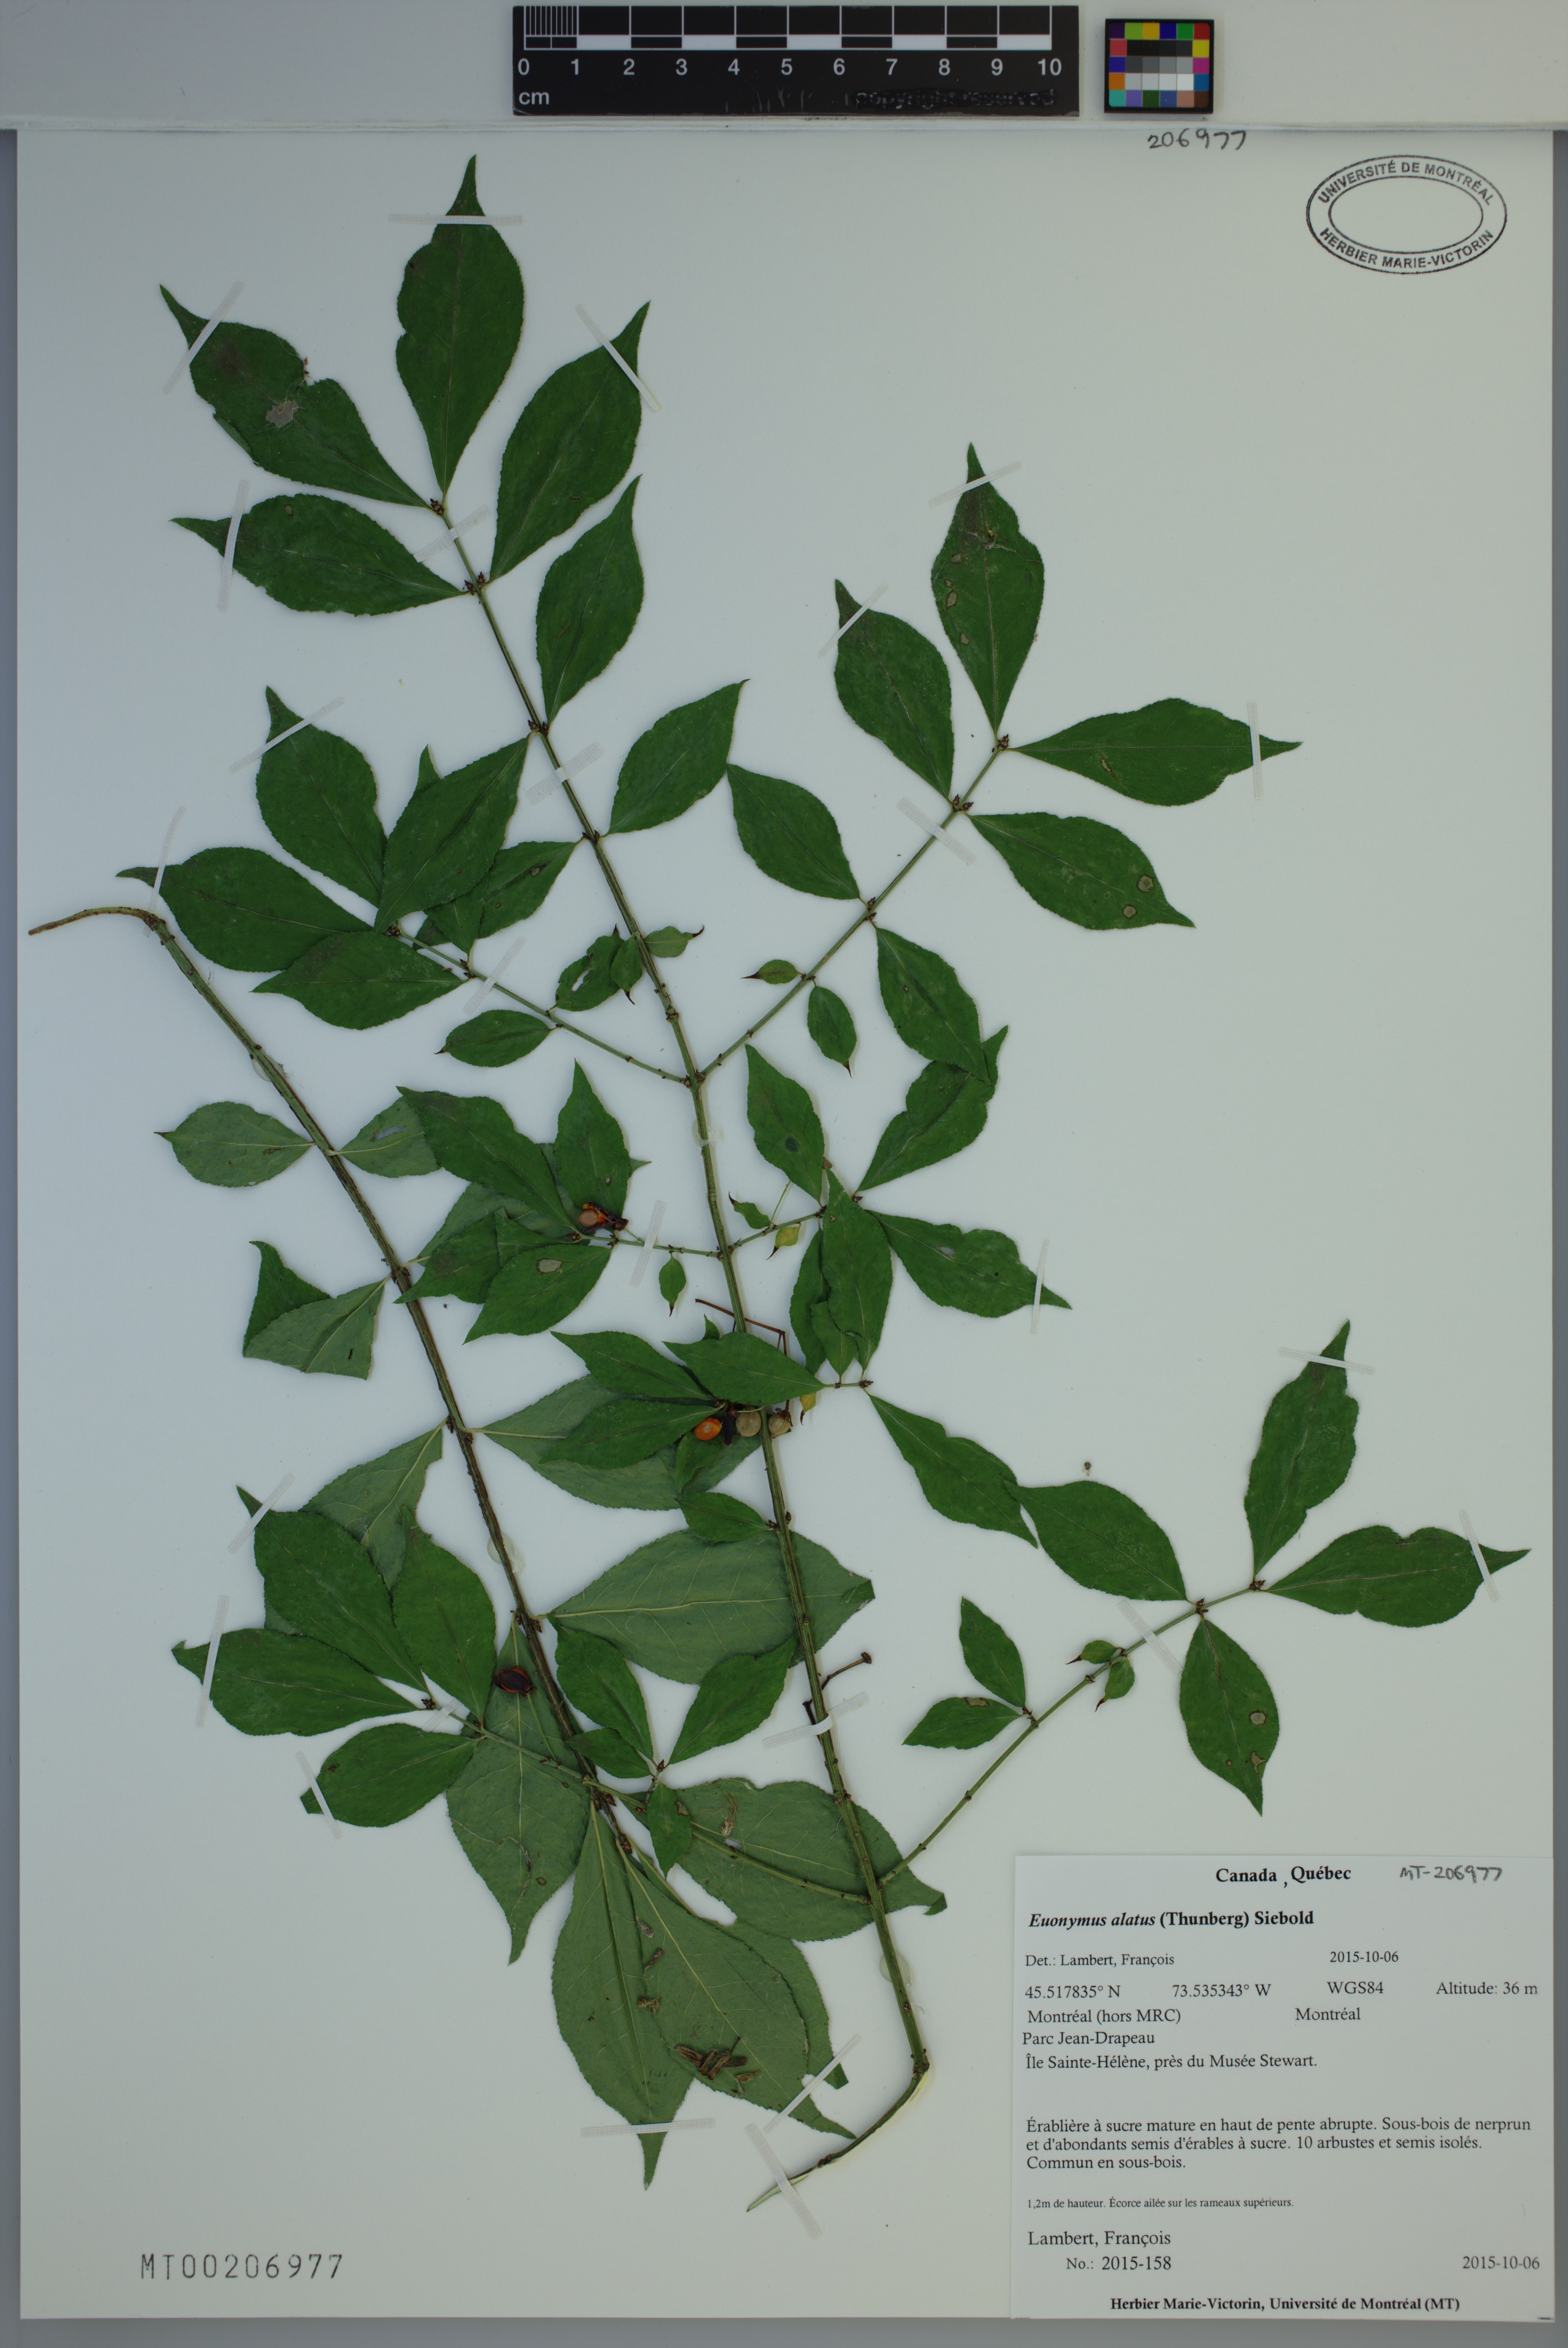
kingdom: Plantae
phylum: Tracheophyta
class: Magnoliopsida
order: Celastrales
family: Celastraceae
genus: Euonymus
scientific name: Euonymus alatus
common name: Winged euonymus
